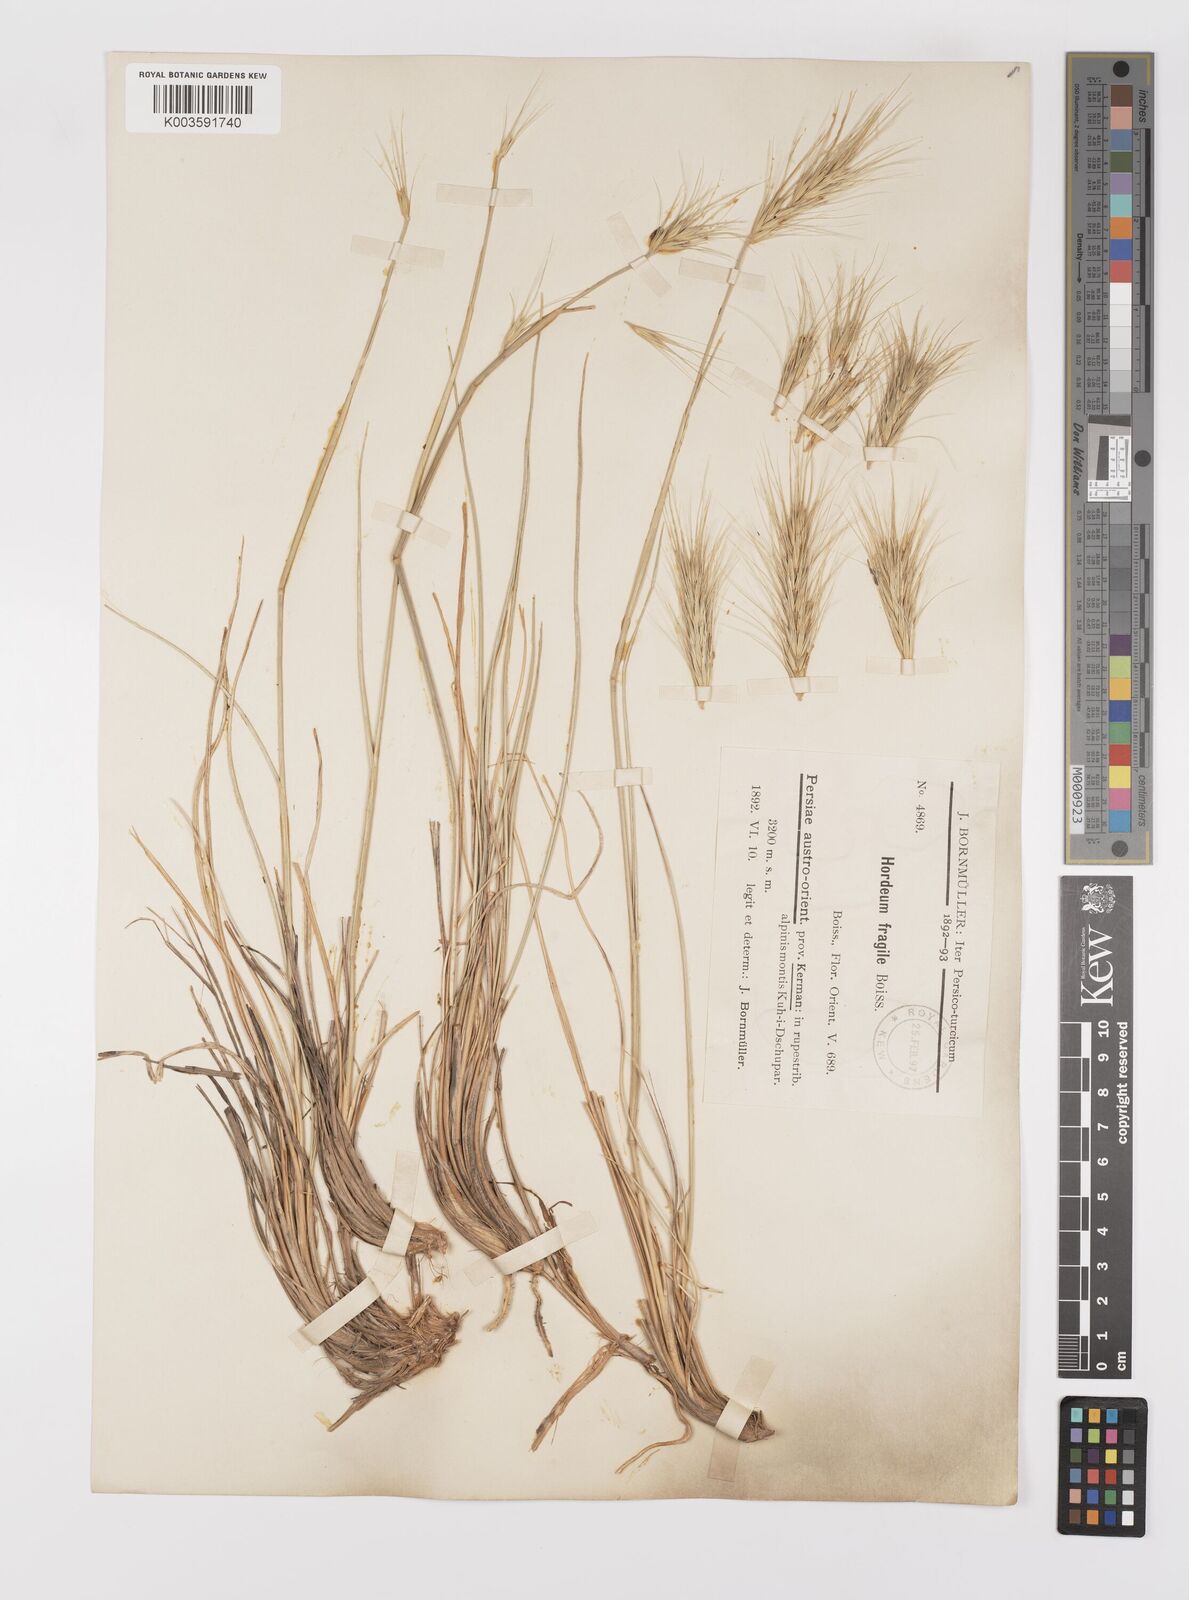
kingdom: Plantae
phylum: Tracheophyta
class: Liliopsida
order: Poales
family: Poaceae
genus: Psathyrostachys
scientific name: Psathyrostachys fragilis
